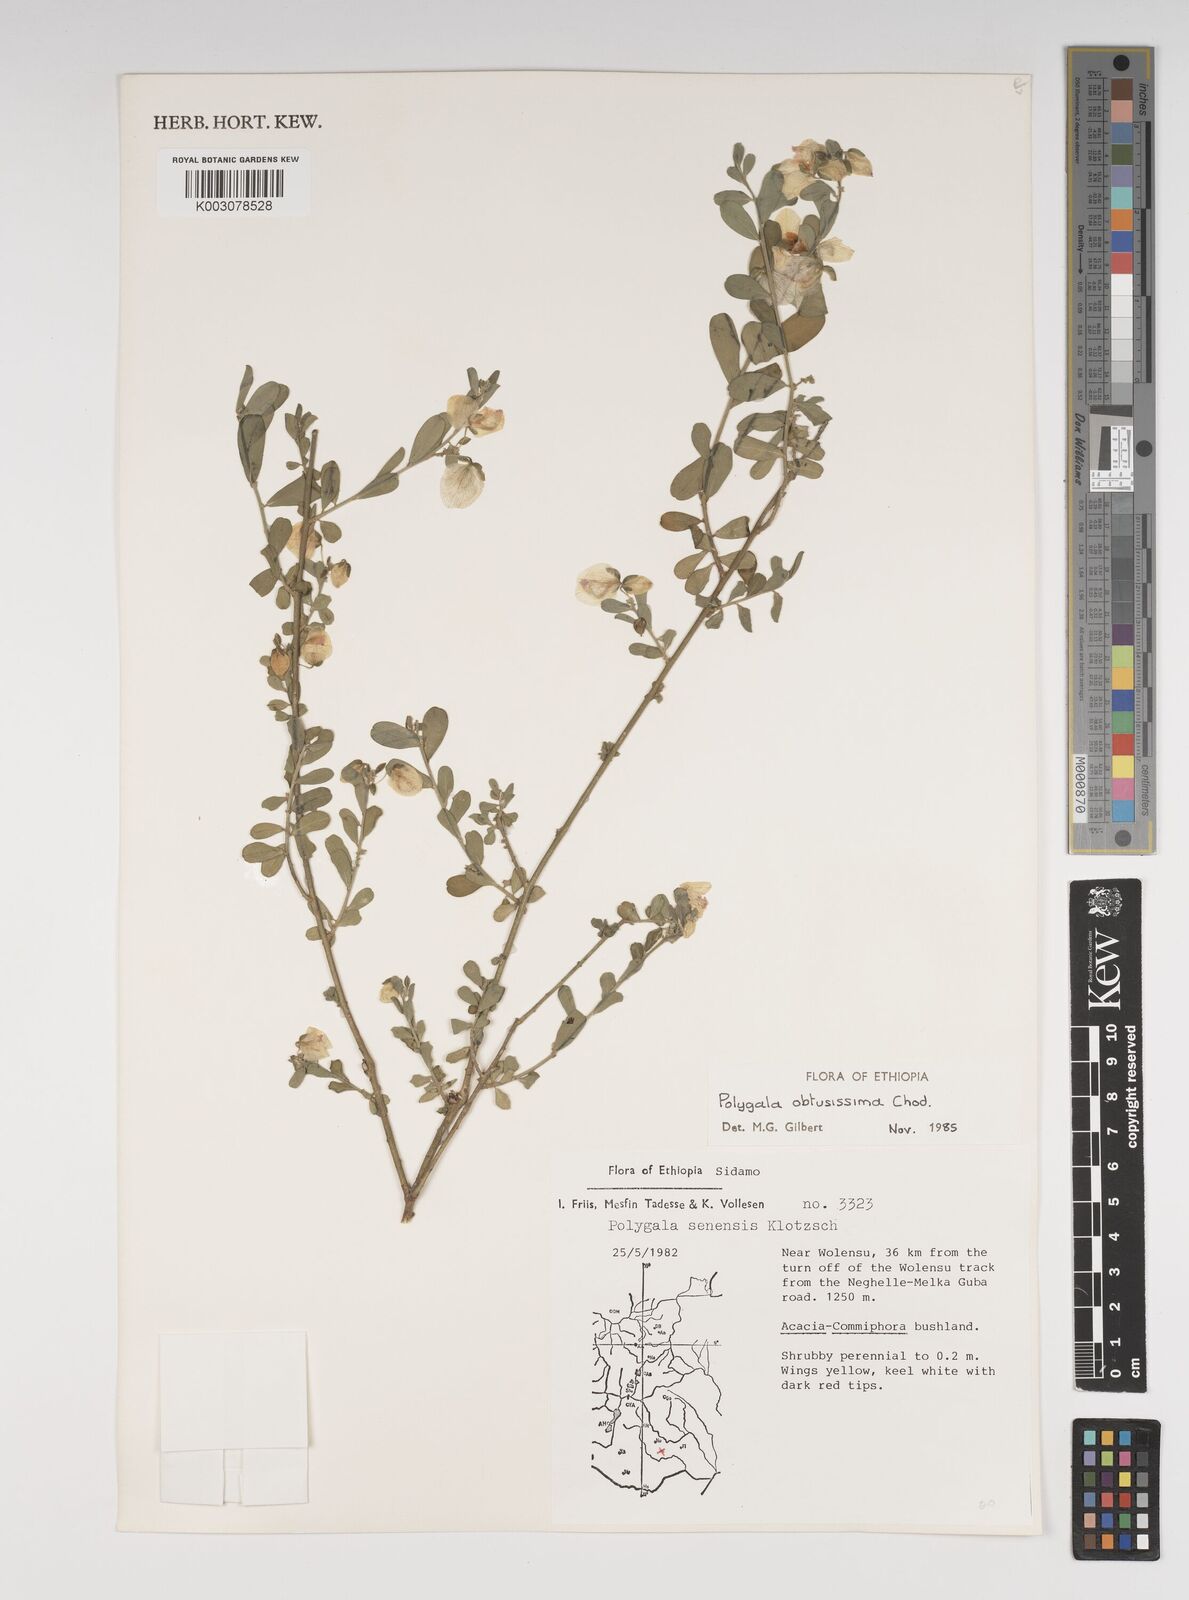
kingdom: Plantae
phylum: Tracheophyta
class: Magnoliopsida
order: Fabales
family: Polygalaceae
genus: Polygala
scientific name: Polygala senensis
